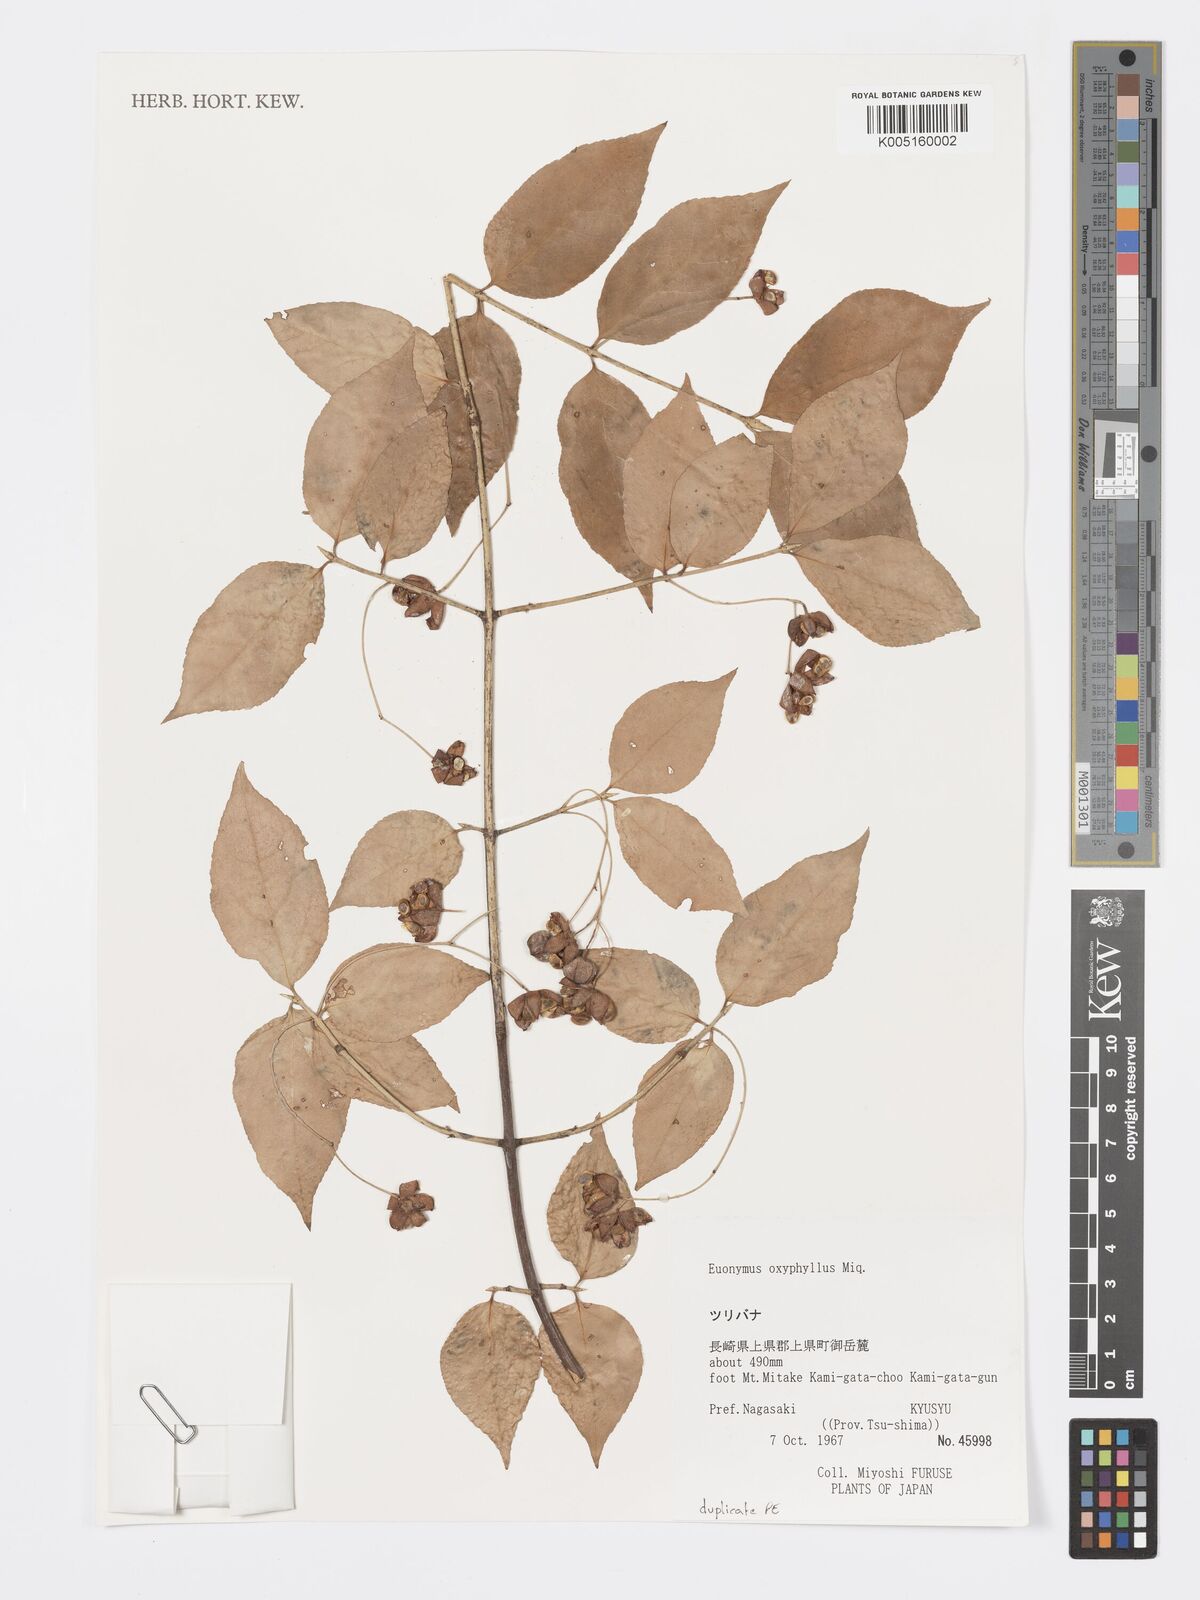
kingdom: Plantae
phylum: Tracheophyta
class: Magnoliopsida
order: Celastrales
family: Celastraceae
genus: Euonymus
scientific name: Euonymus oxyphyllus
